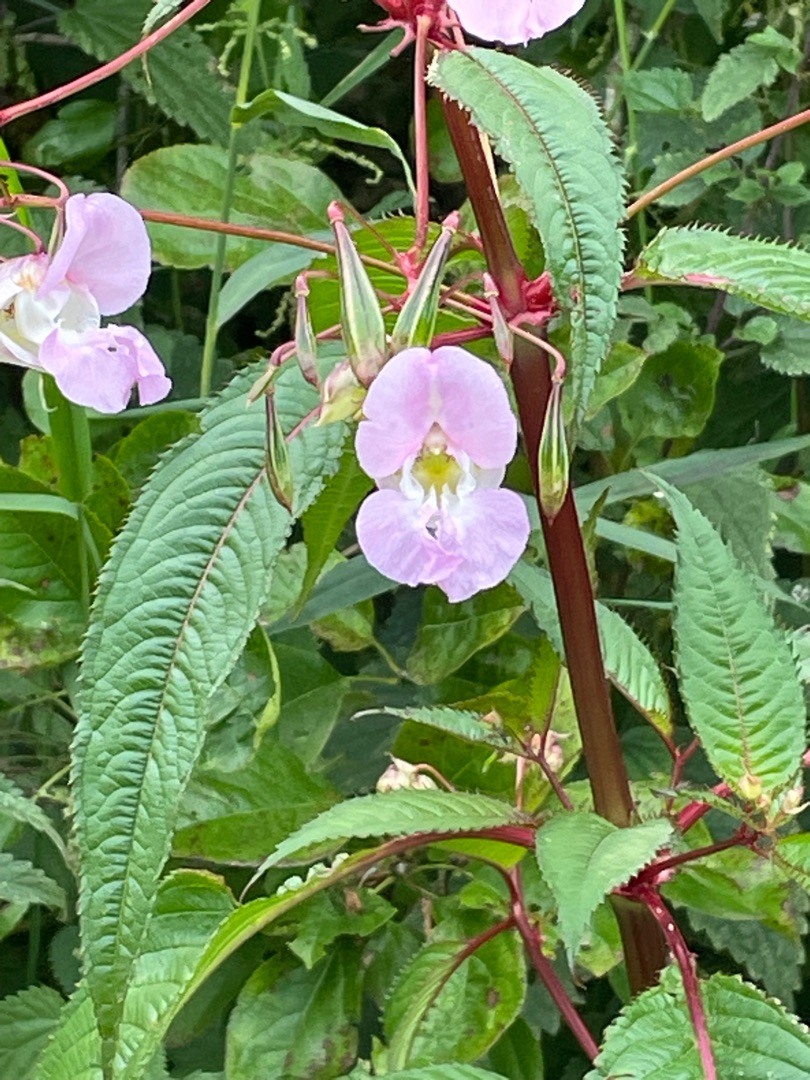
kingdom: Plantae
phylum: Tracheophyta
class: Magnoliopsida
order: Ericales
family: Balsaminaceae
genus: Impatiens
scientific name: Impatiens glandulifera
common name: Kæmpe-balsamin
